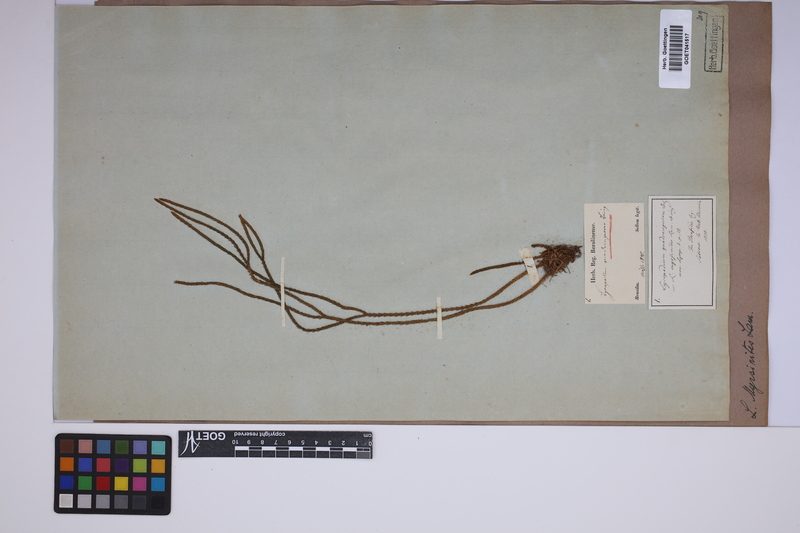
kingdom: Plantae
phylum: Tracheophyta
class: Lycopodiopsida
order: Lycopodiales
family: Lycopodiaceae
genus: Phlegmariurus
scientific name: Phlegmariurus myrsinites
